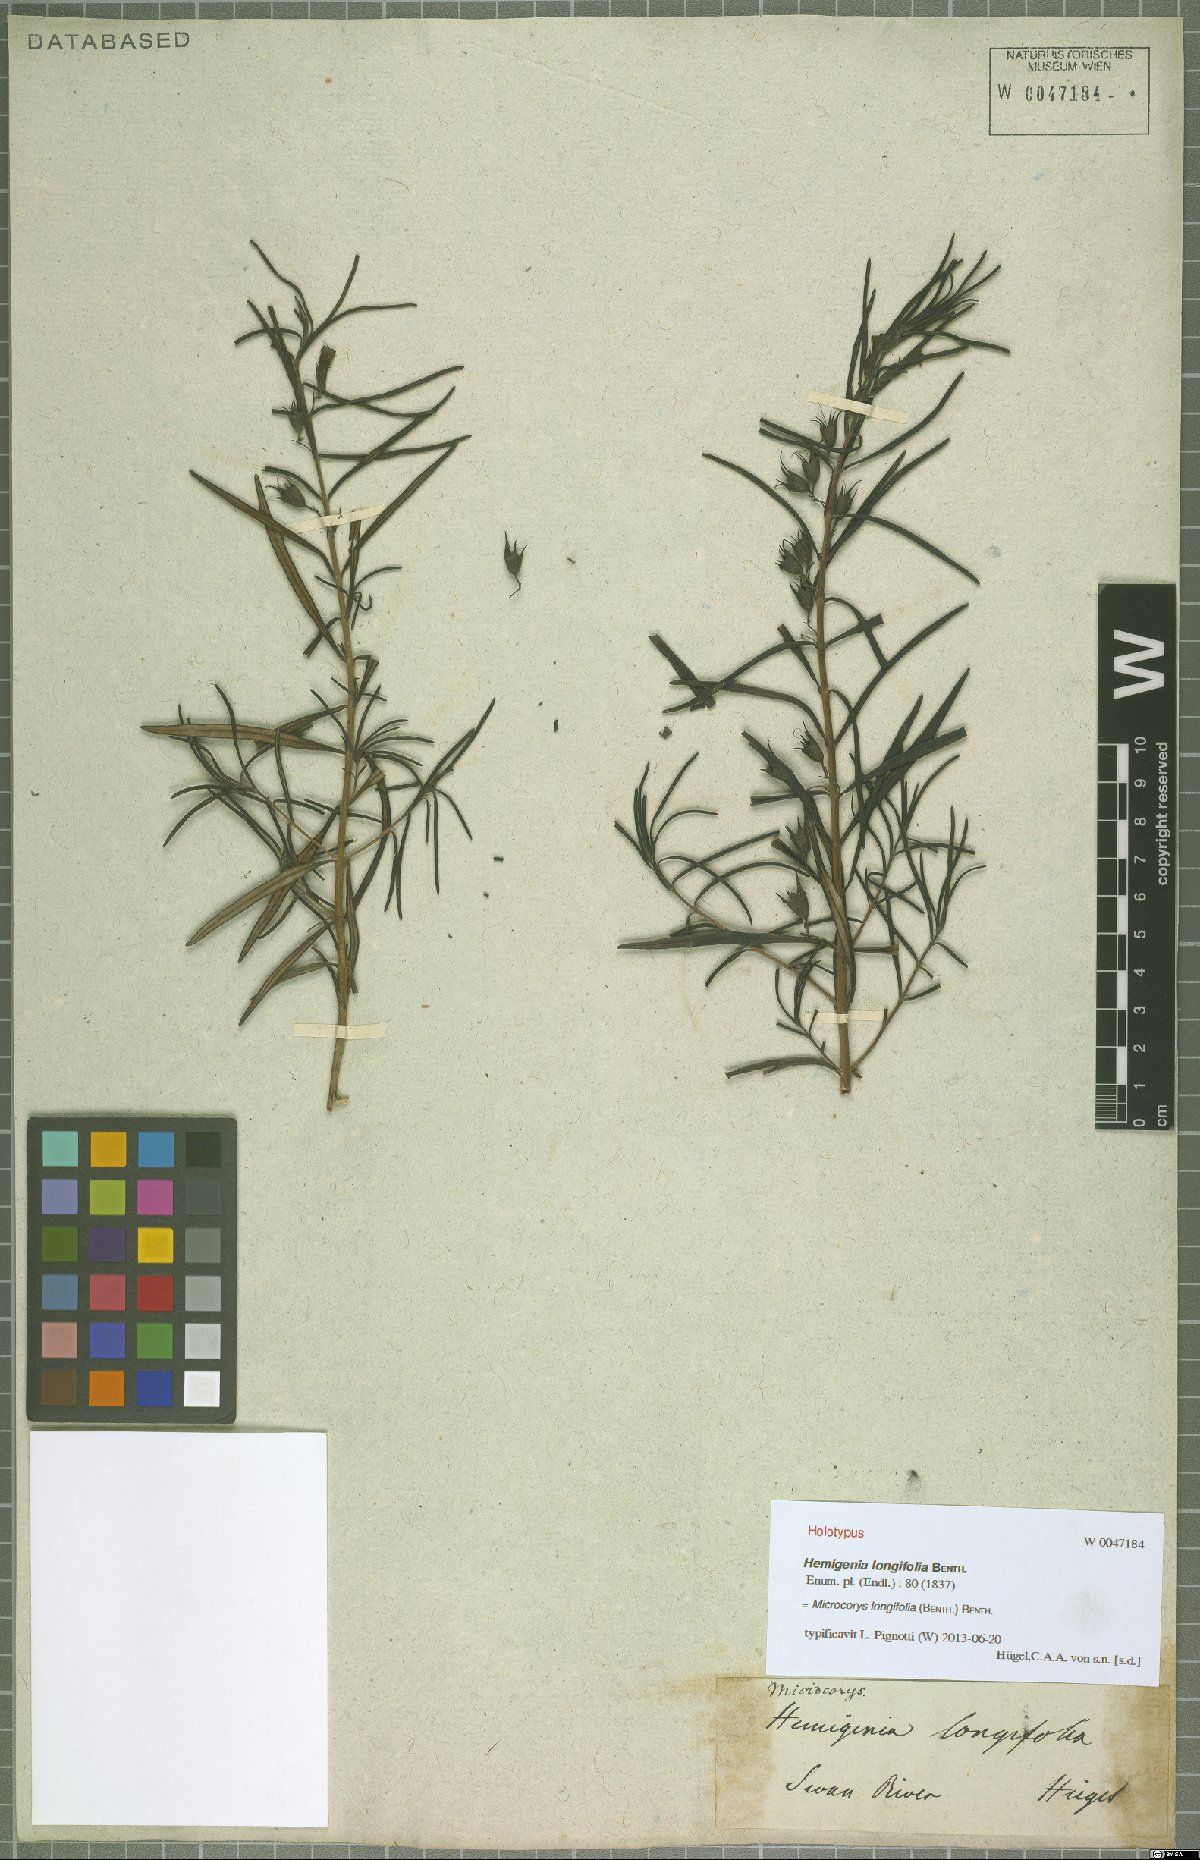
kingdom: Plantae
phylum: Tracheophyta
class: Magnoliopsida
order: Lamiales
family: Lamiaceae
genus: Microcorys
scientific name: Microcorys longifolia
